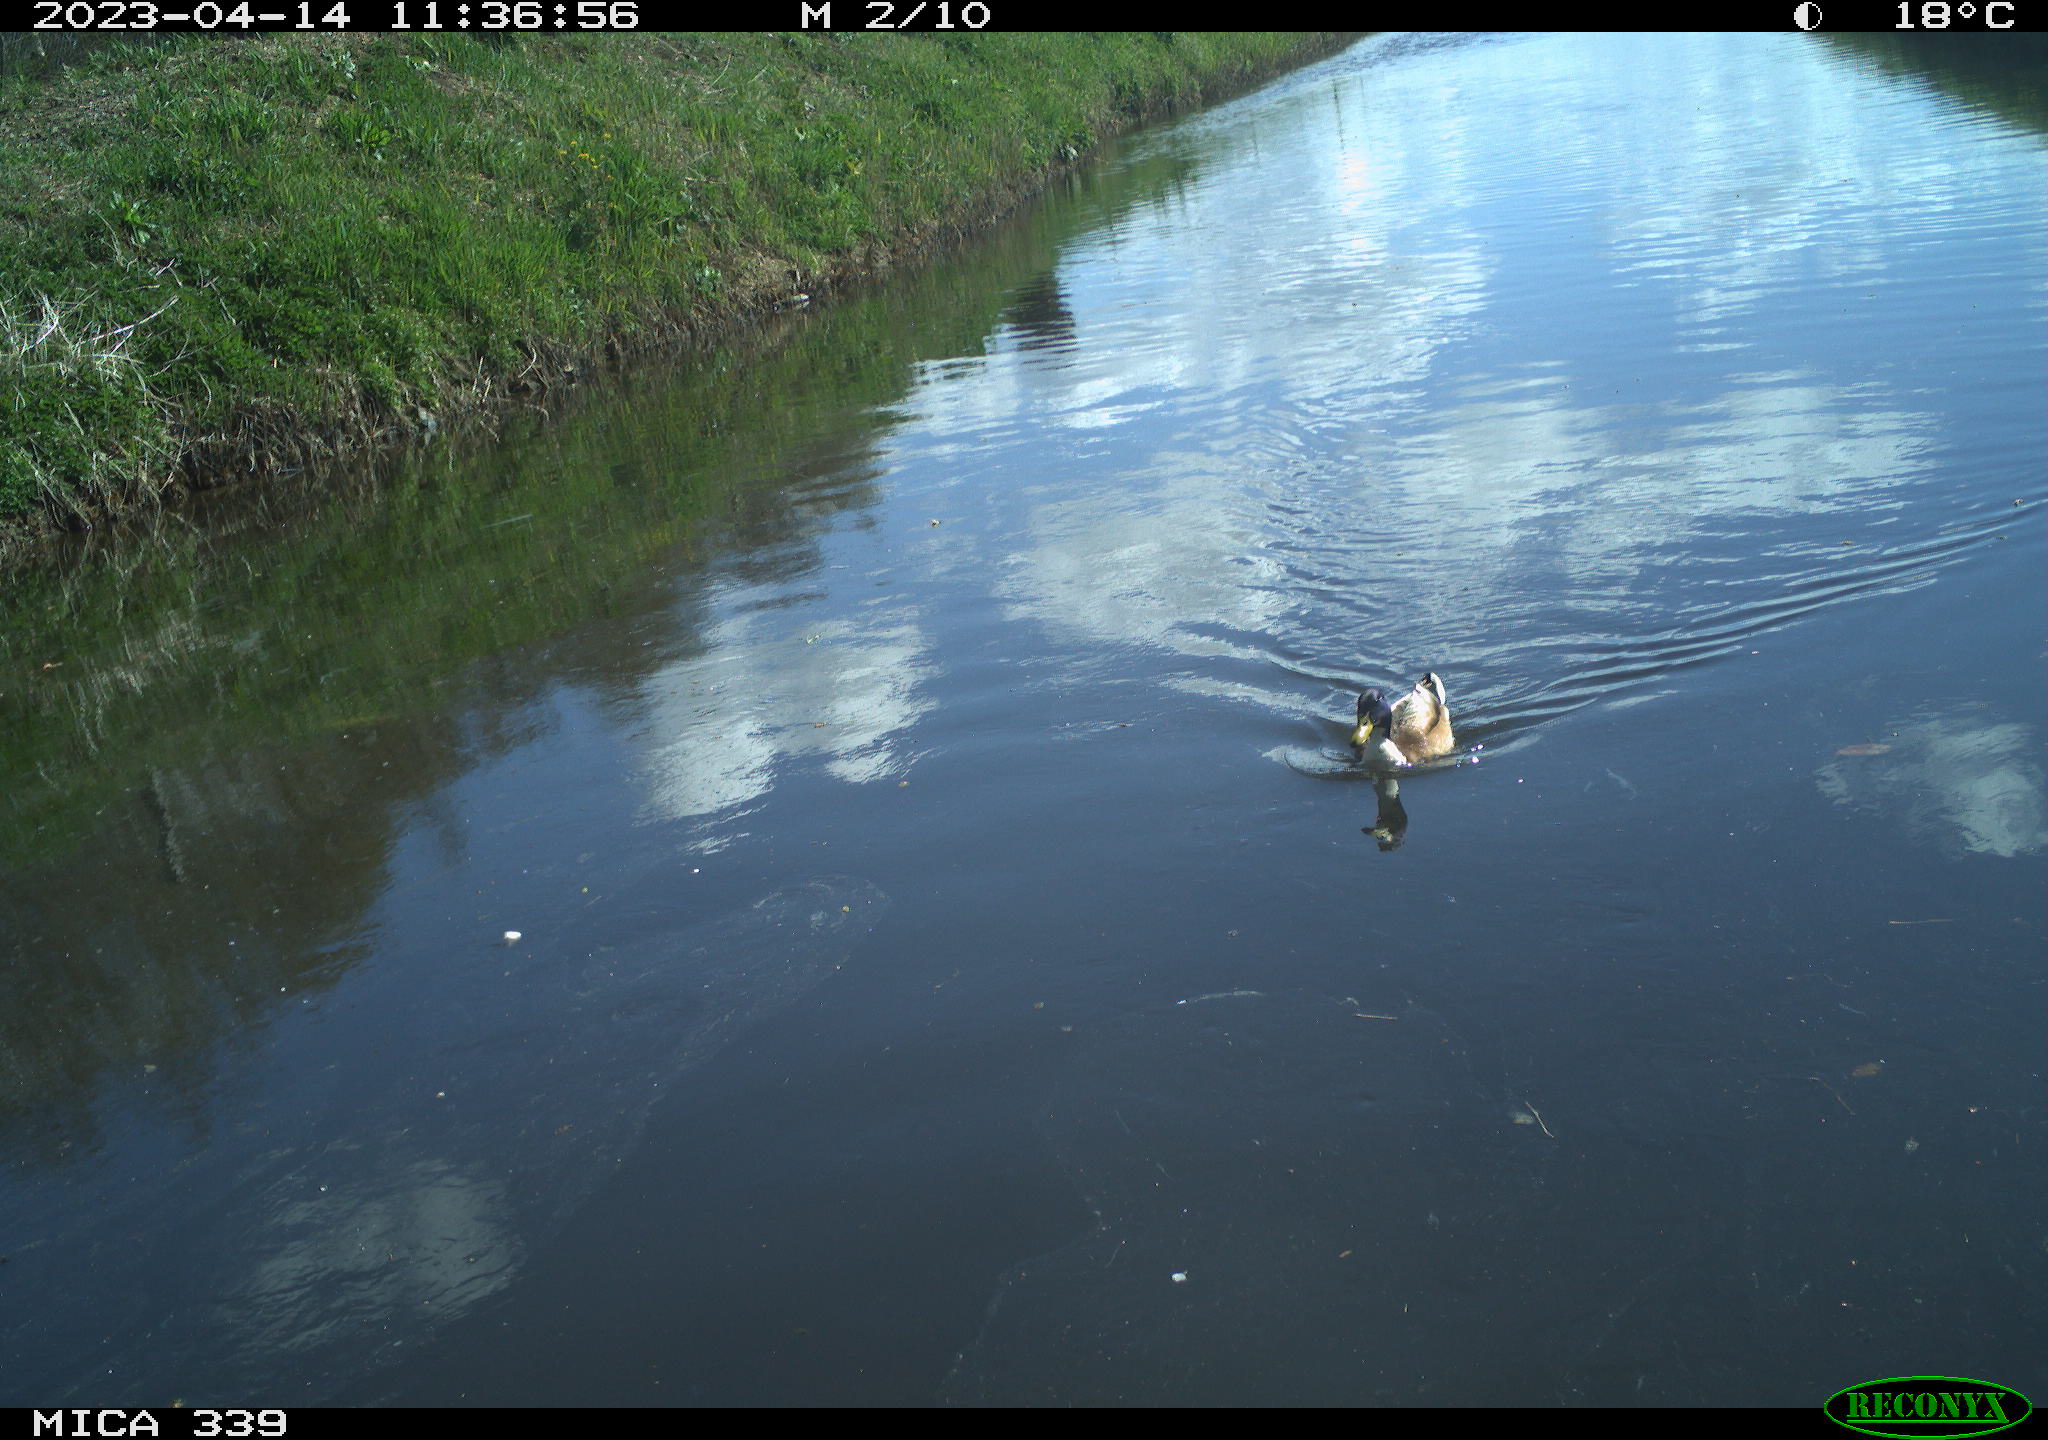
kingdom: Animalia
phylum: Chordata
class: Aves
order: Anseriformes
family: Anatidae
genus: Anas
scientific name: Anas platyrhynchos
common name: Mallard
